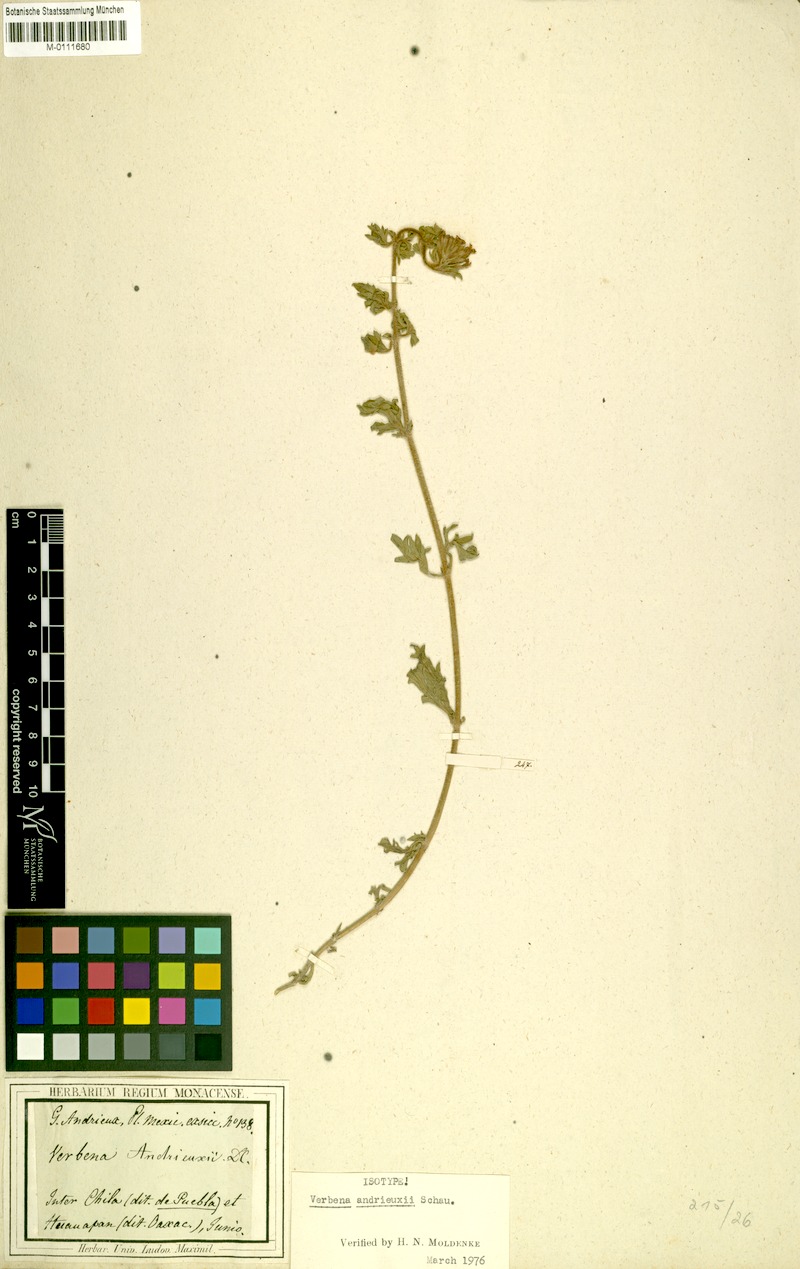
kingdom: Plantae
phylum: Tracheophyta
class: Magnoliopsida
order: Lamiales
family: Verbenaceae
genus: Verbena
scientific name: Verbena teucriifolia
